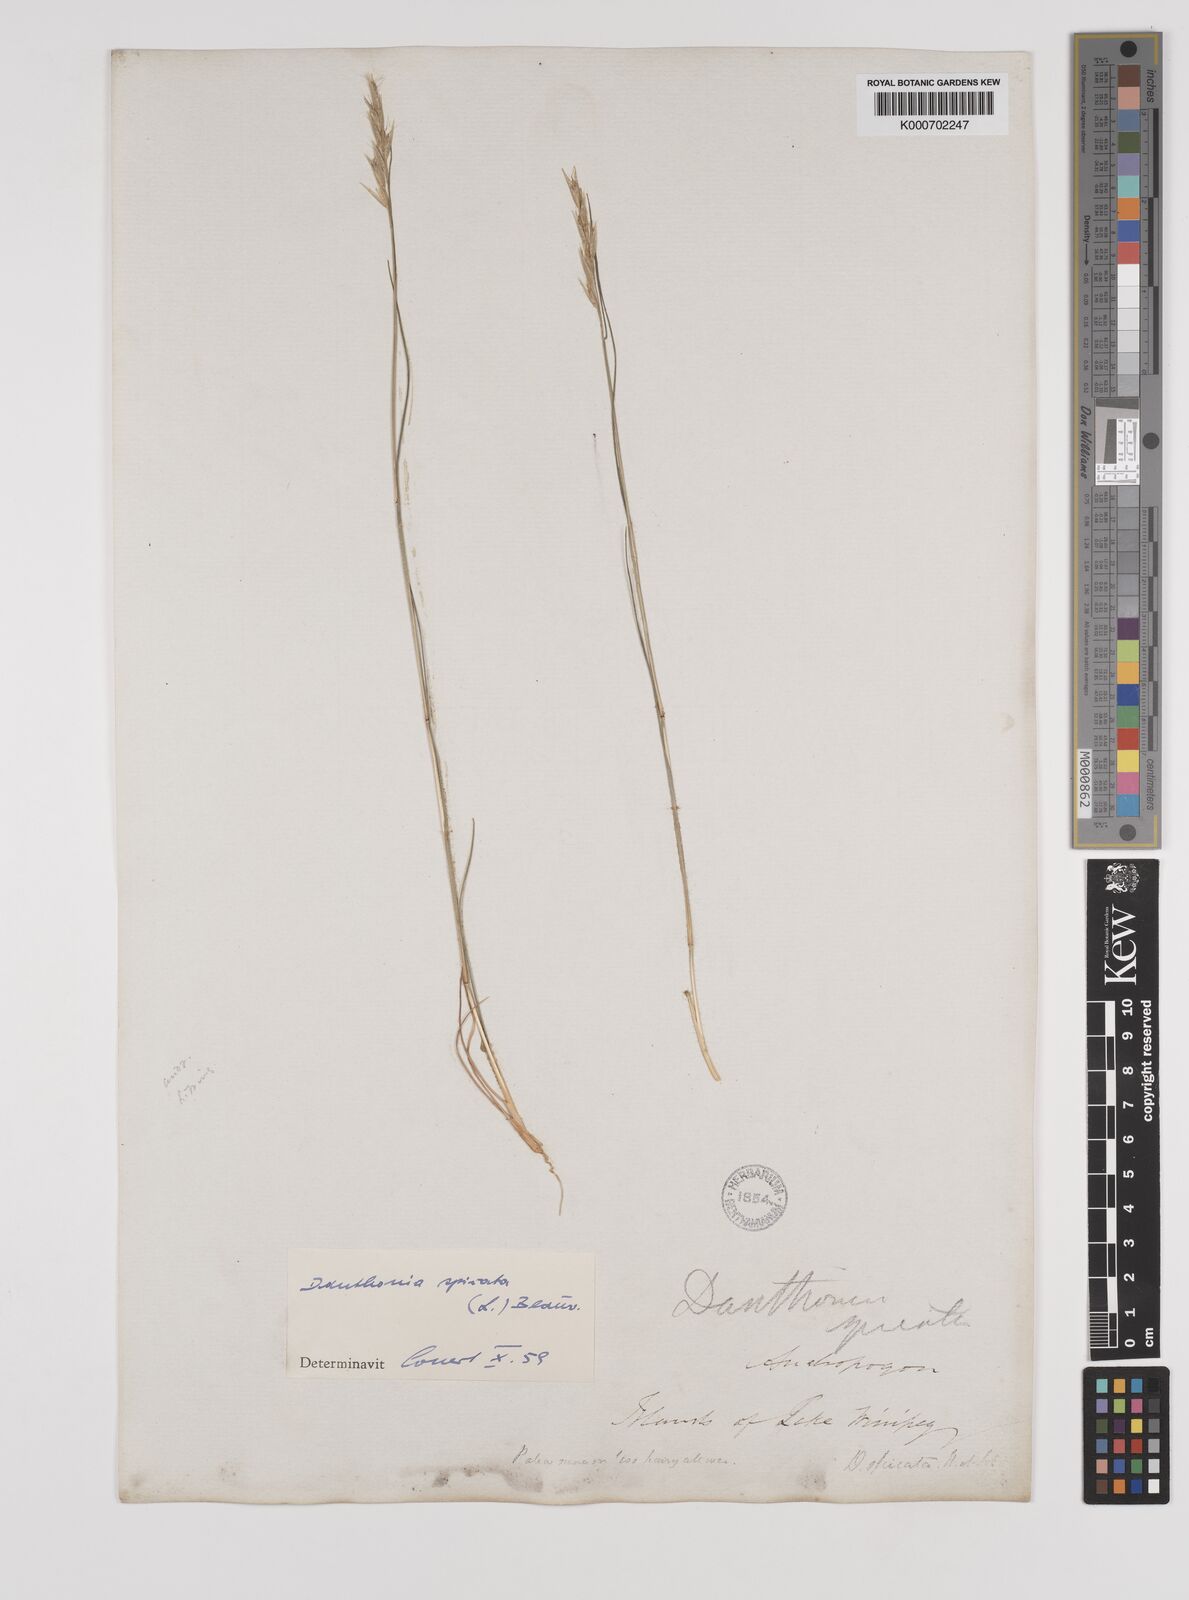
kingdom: Plantae
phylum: Tracheophyta
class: Liliopsida
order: Poales
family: Poaceae
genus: Danthonia
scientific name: Danthonia spicata
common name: Common wild oatgrass
